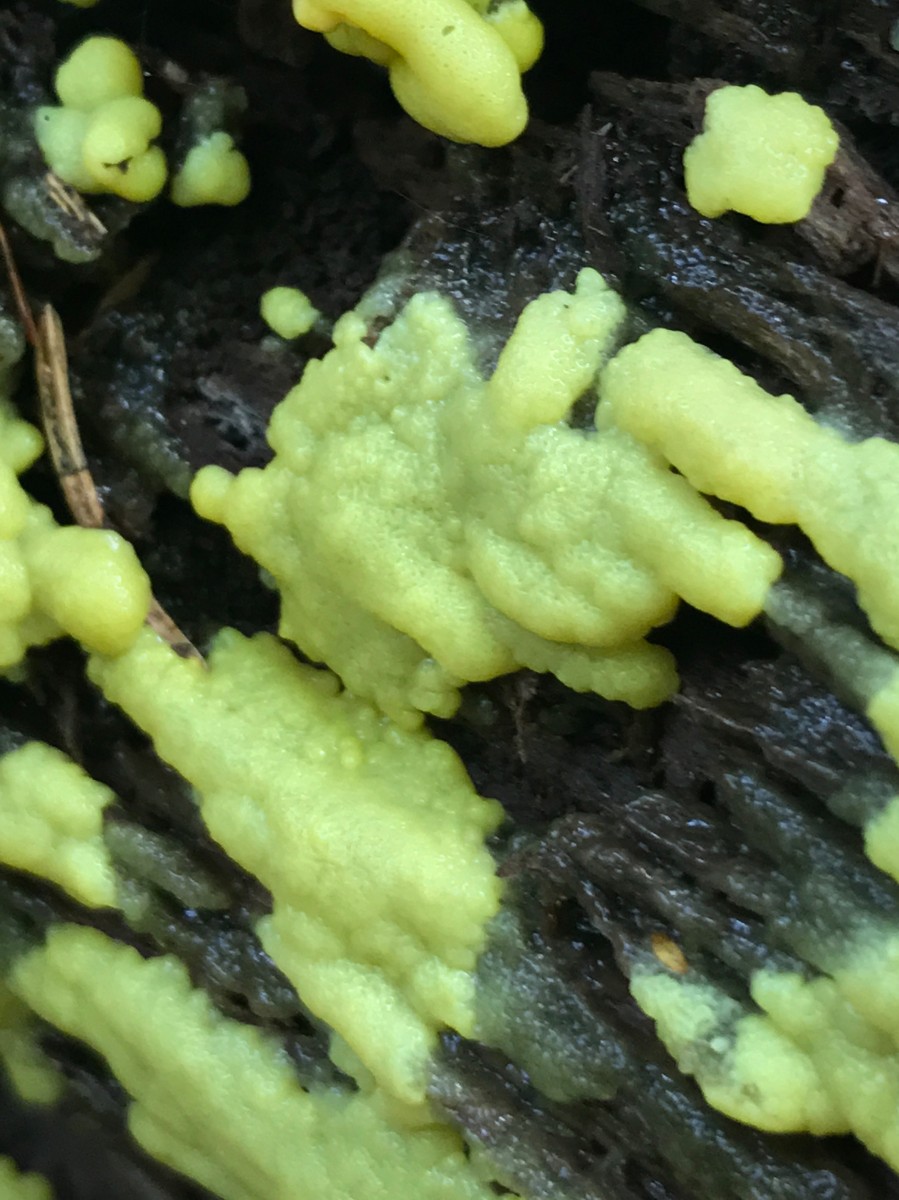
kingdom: Protozoa
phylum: Mycetozoa
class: Protosteliomycetes
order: Ceratiomyxales
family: Ceratiomyxaceae
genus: Ceratiomyxa
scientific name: Ceratiomyxa fruticulosa
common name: Honeycomb coral slime mold
